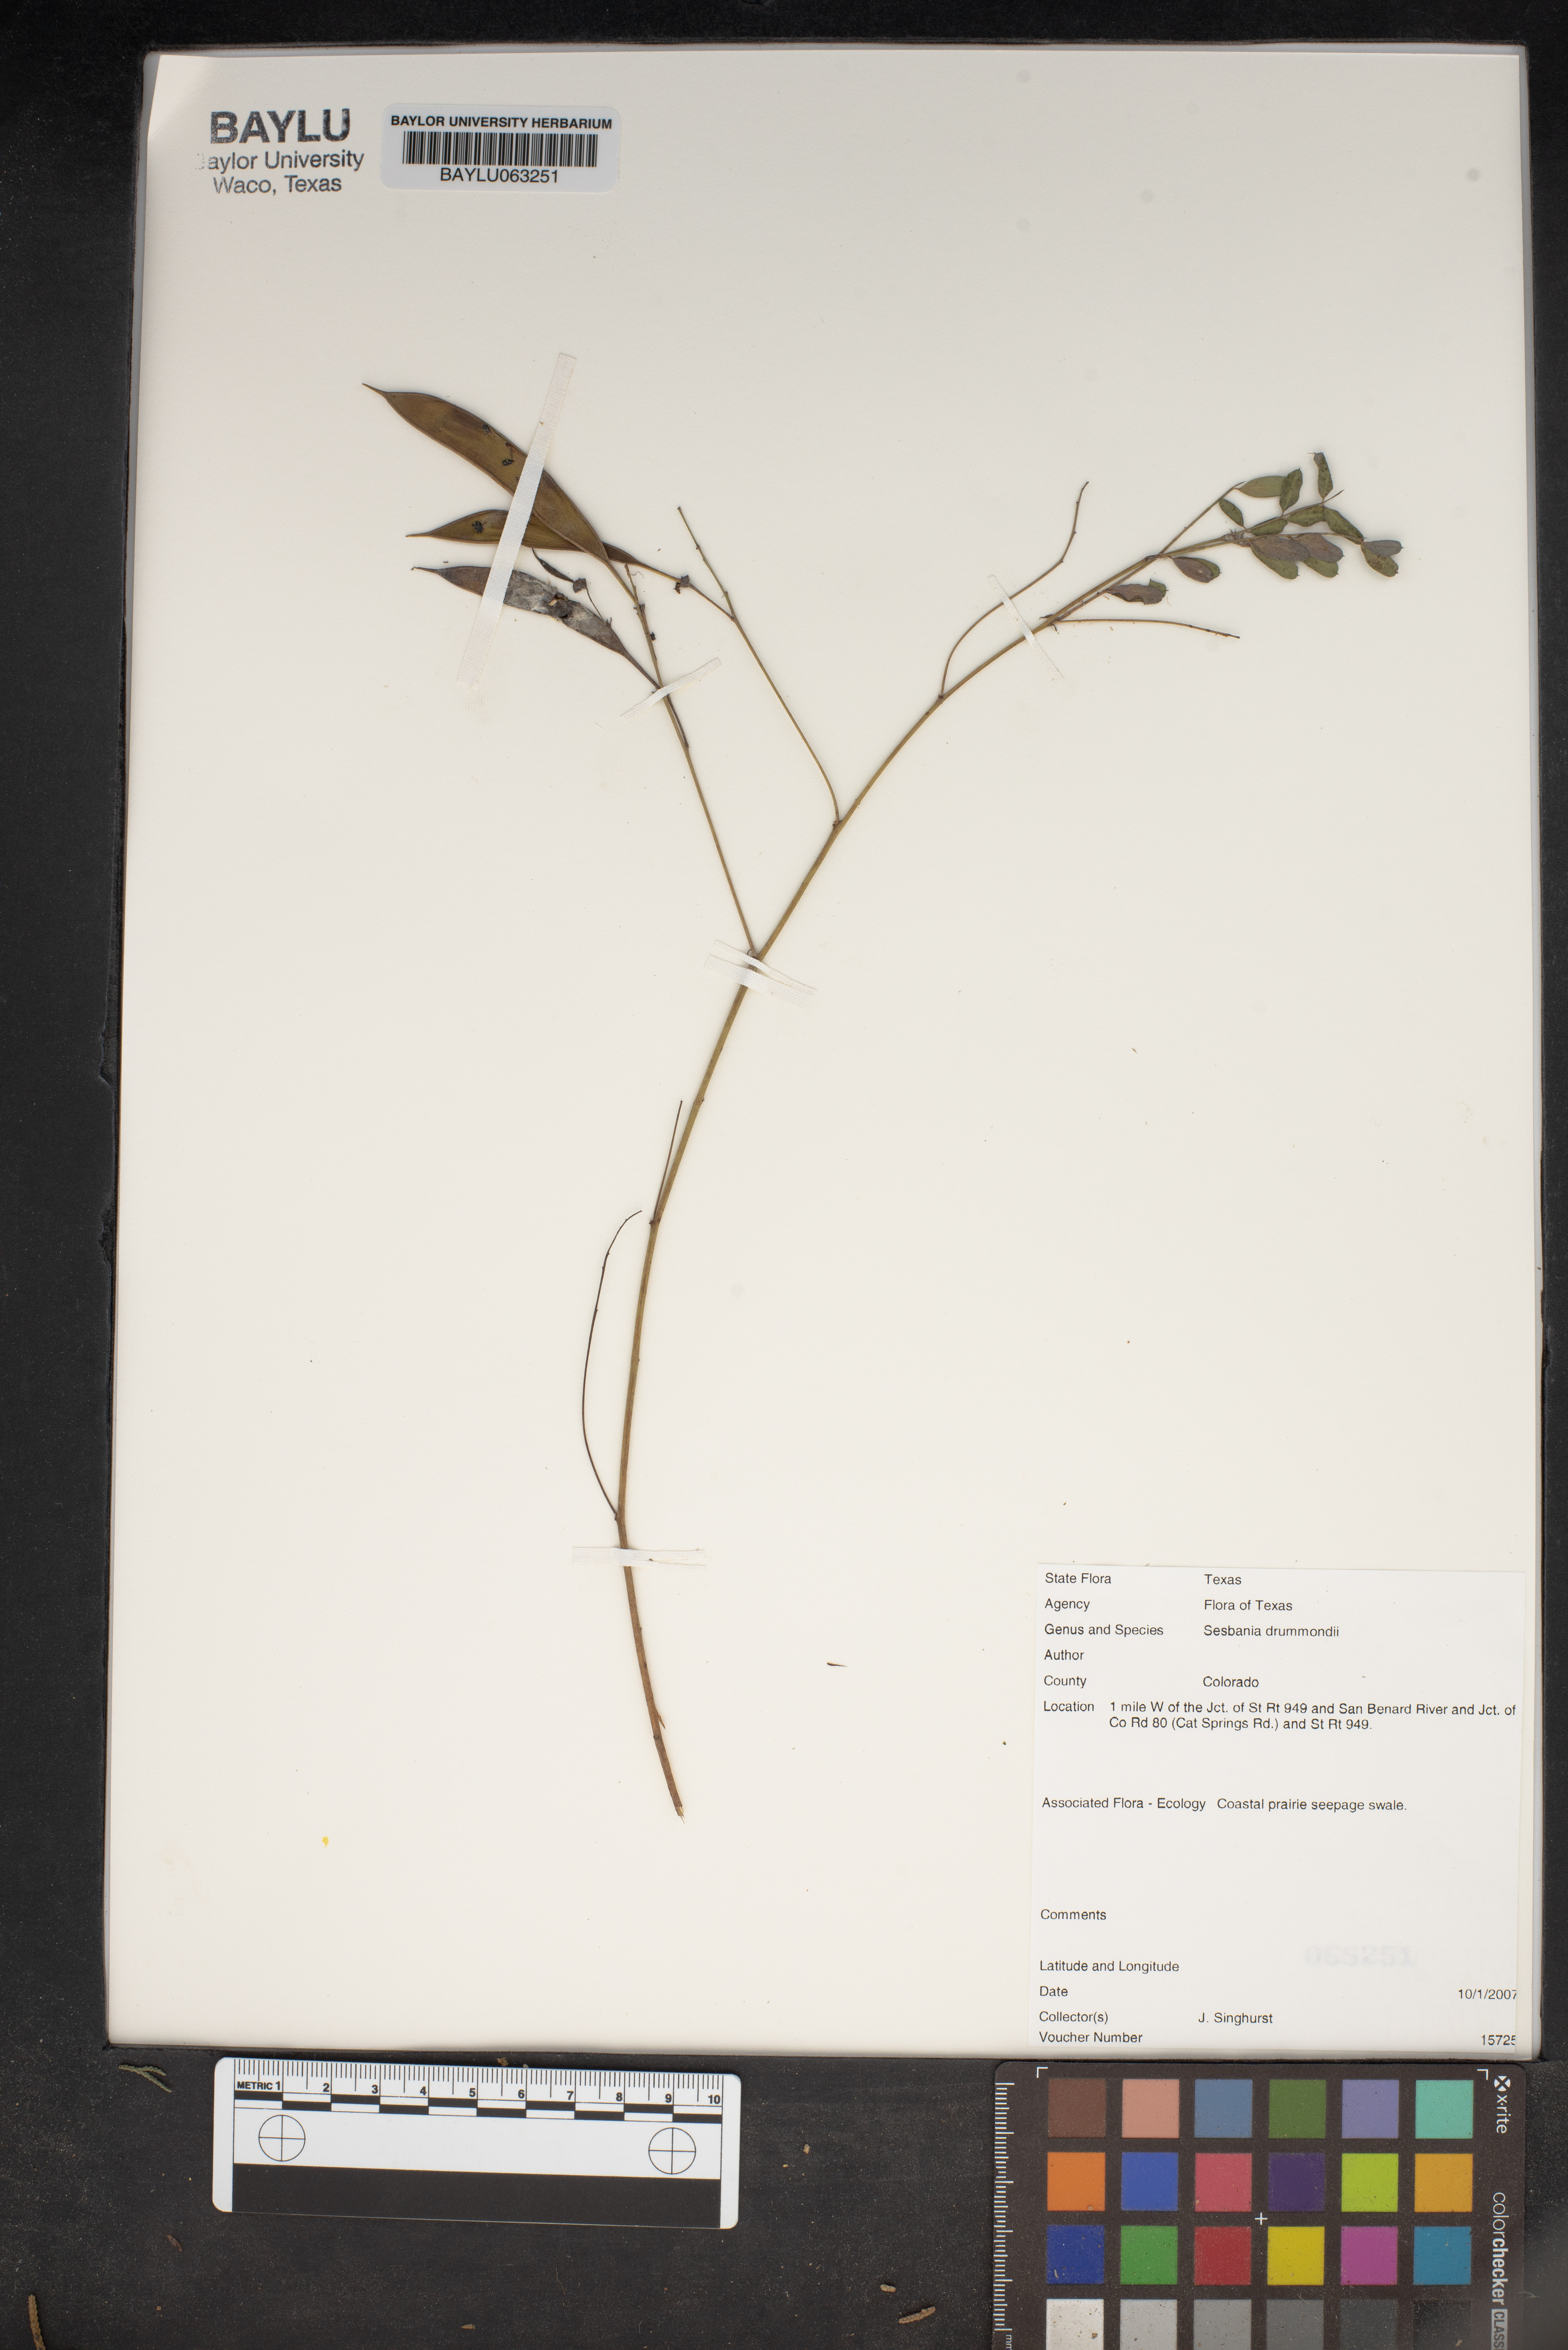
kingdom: Plantae
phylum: Tracheophyta
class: Magnoliopsida
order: Fabales
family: Fabaceae
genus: Sesbania
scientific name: Sesbania drummondii
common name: Poison-bean
